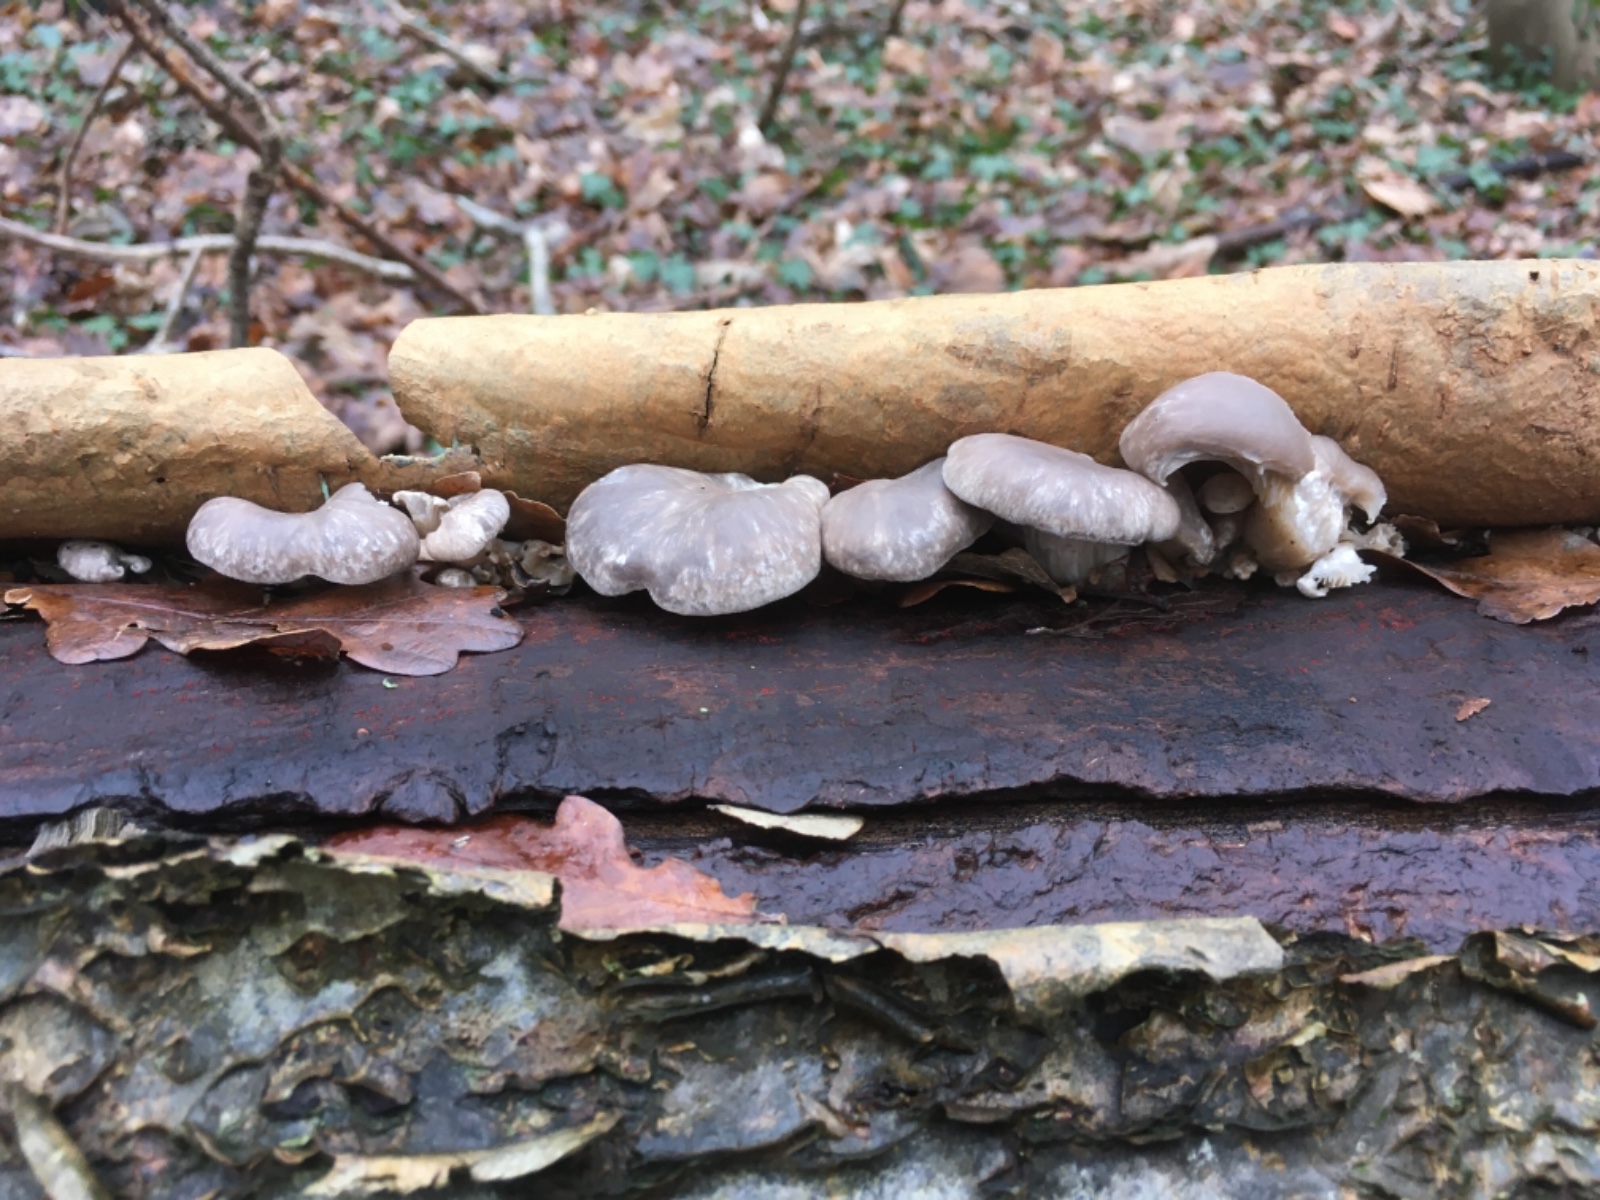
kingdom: Fungi
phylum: Basidiomycota
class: Agaricomycetes
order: Agaricales
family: Pleurotaceae
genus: Pleurotus
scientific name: Pleurotus ostreatus
